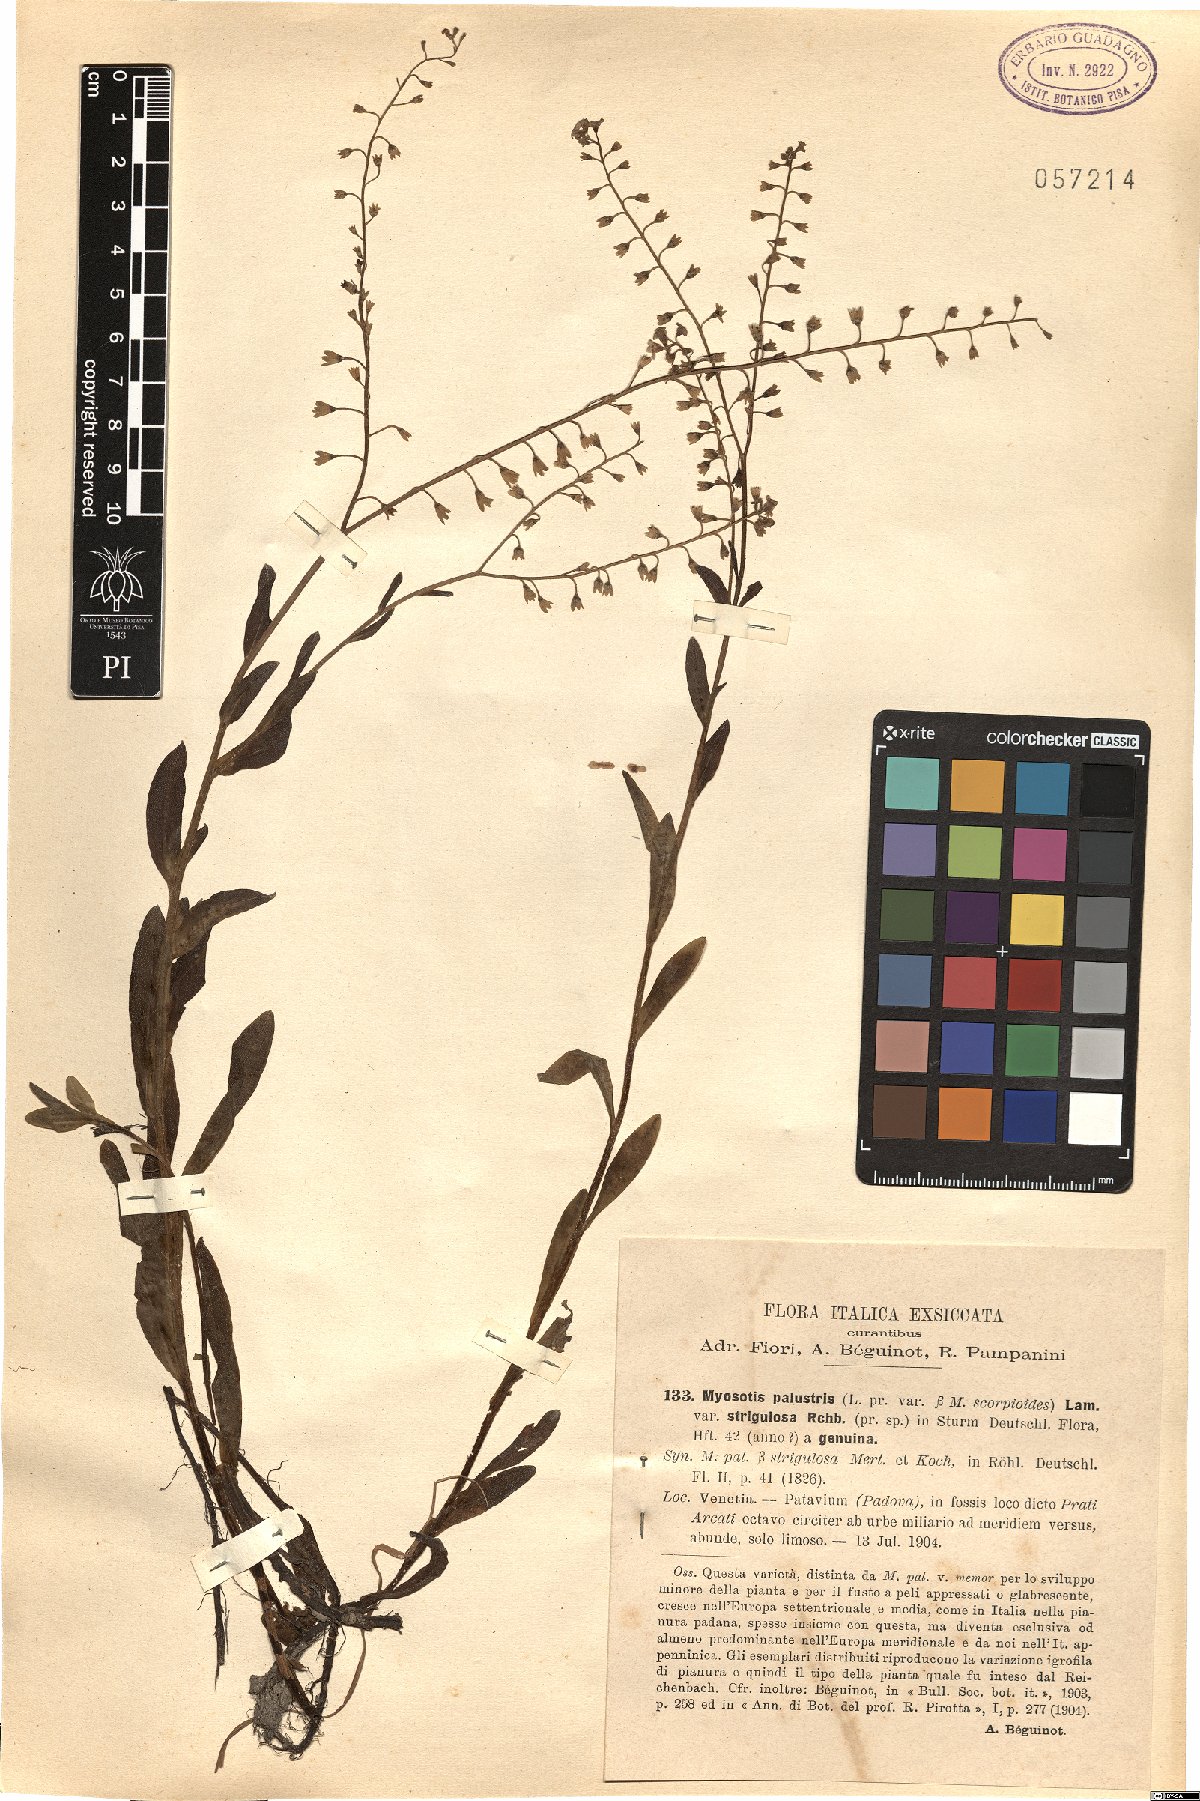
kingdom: Plantae
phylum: Tracheophyta
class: Magnoliopsida
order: Boraginales
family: Boraginaceae
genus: Myosotis
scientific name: Myosotis nemorosa
